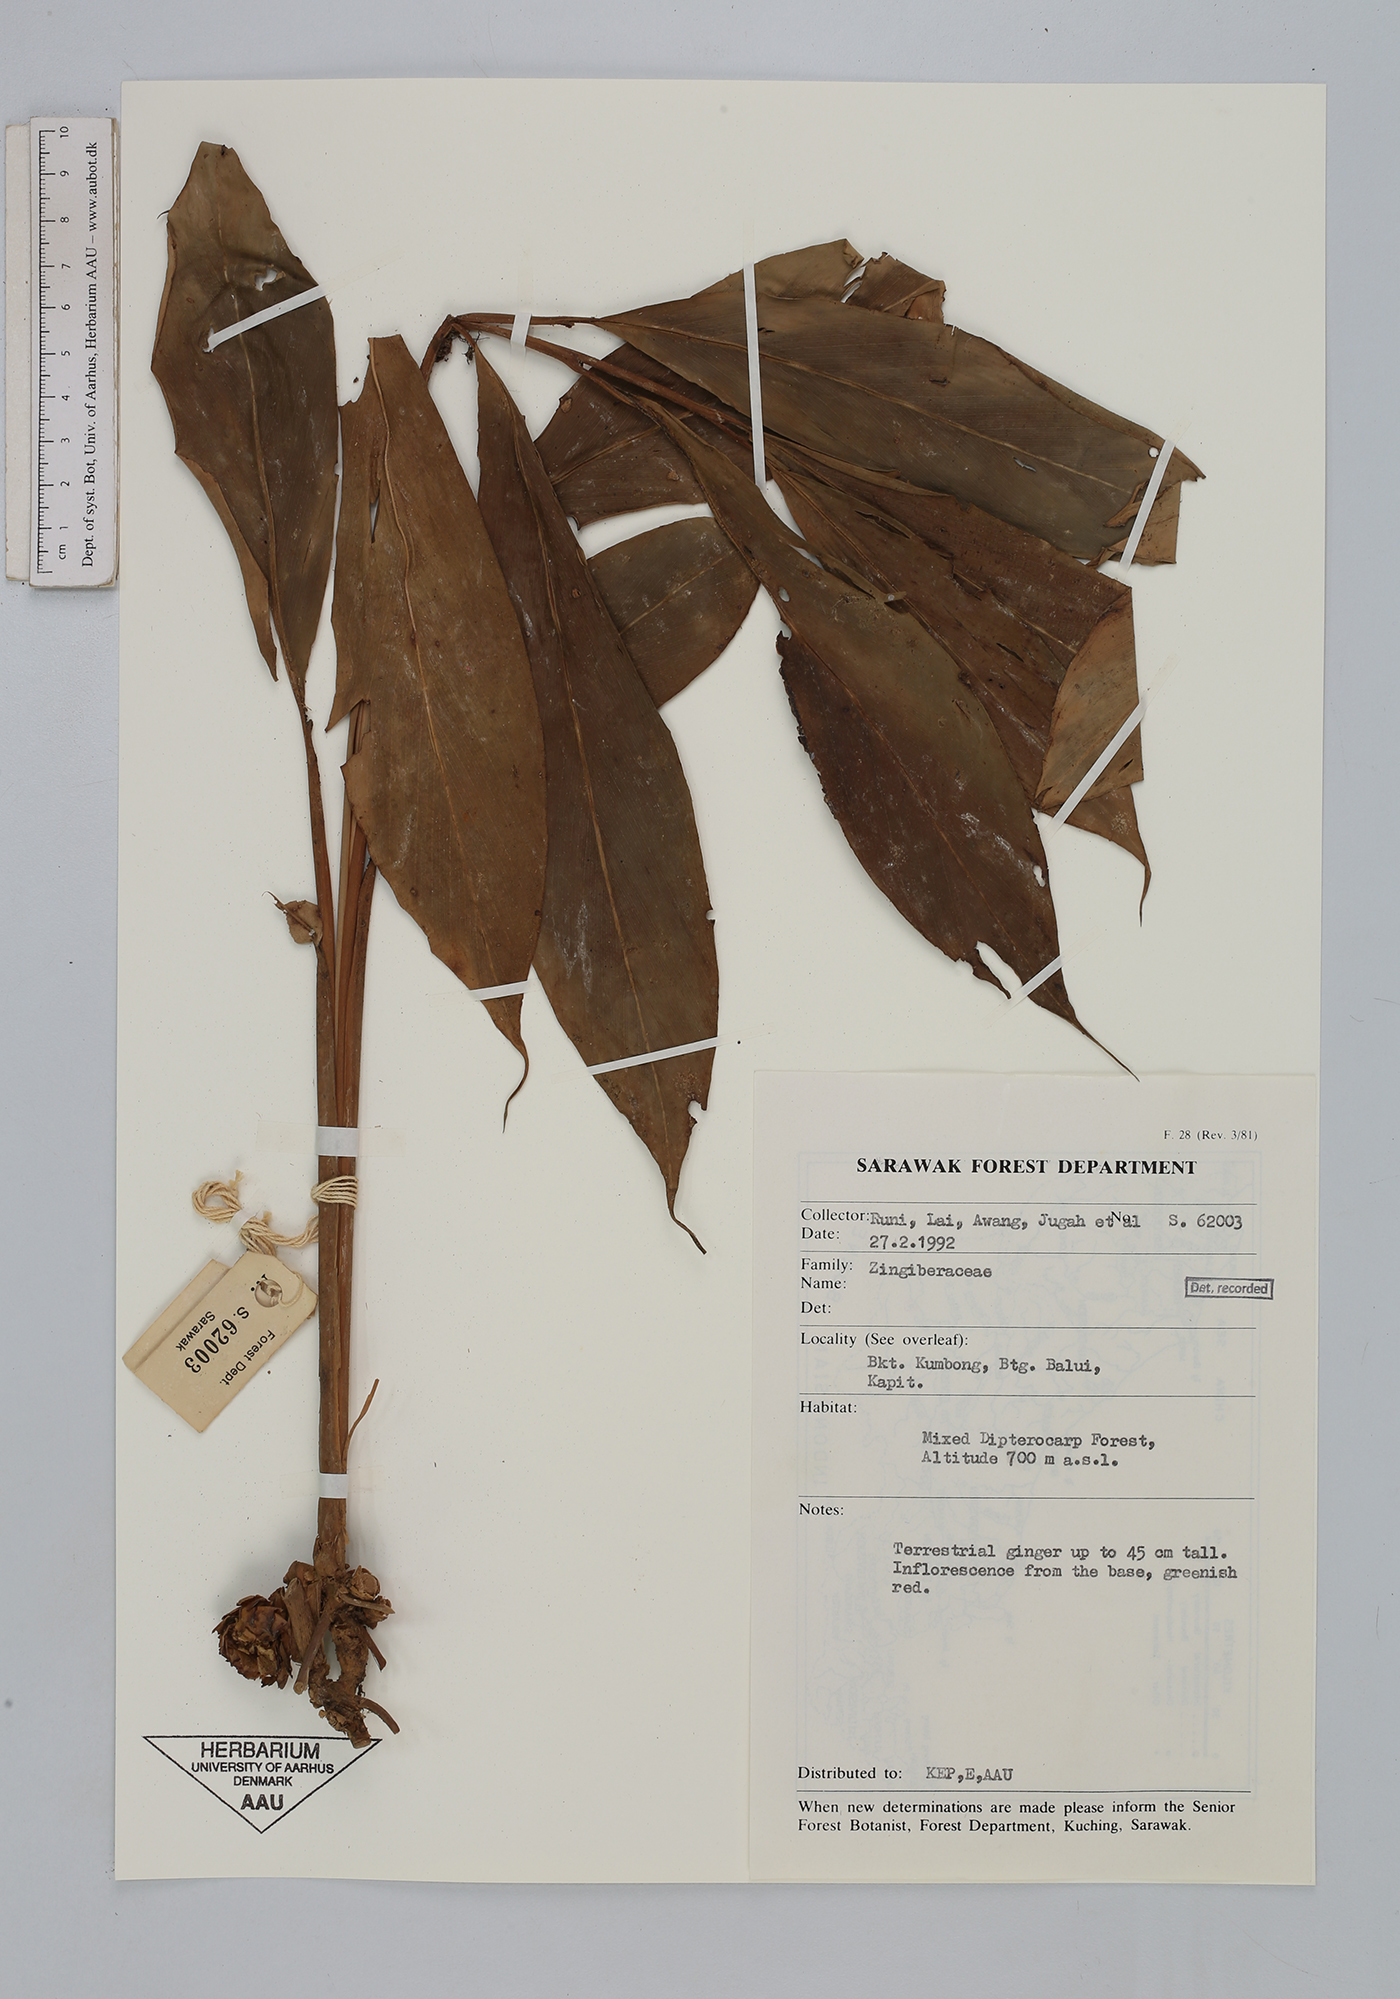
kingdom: Plantae
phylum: Tracheophyta
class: Liliopsida
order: Zingiberales
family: Zingiberaceae
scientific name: Zingiberaceae
